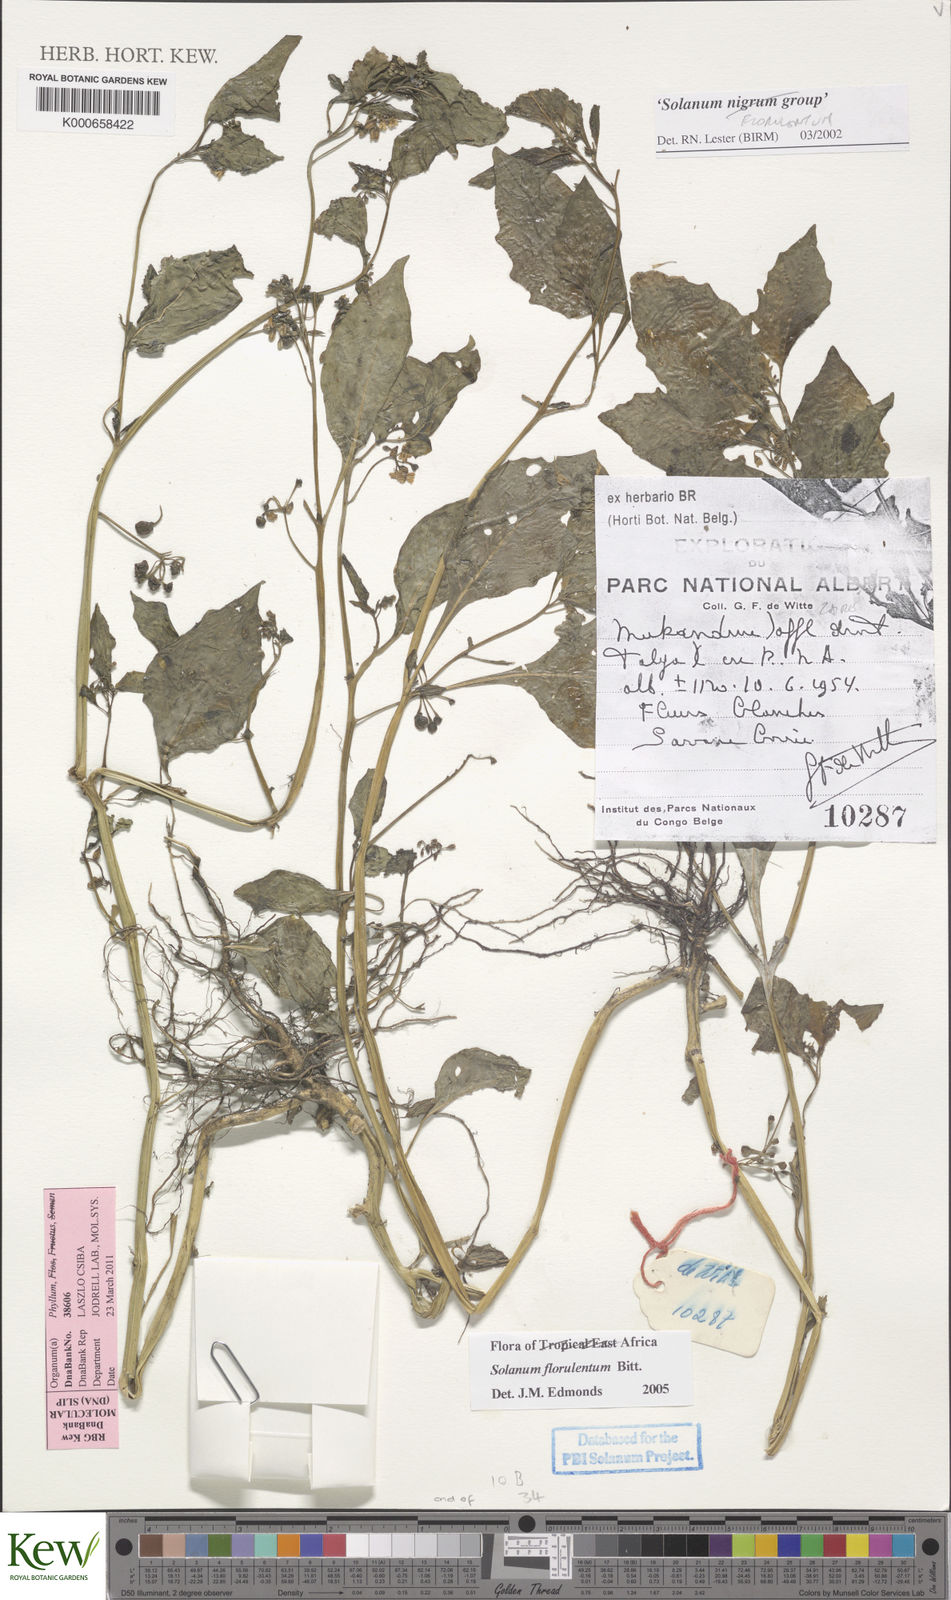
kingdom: Plantae
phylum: Tracheophyta
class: Magnoliopsida
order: Solanales
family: Solanaceae
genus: Solanum
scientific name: Solanum grandidentatum
